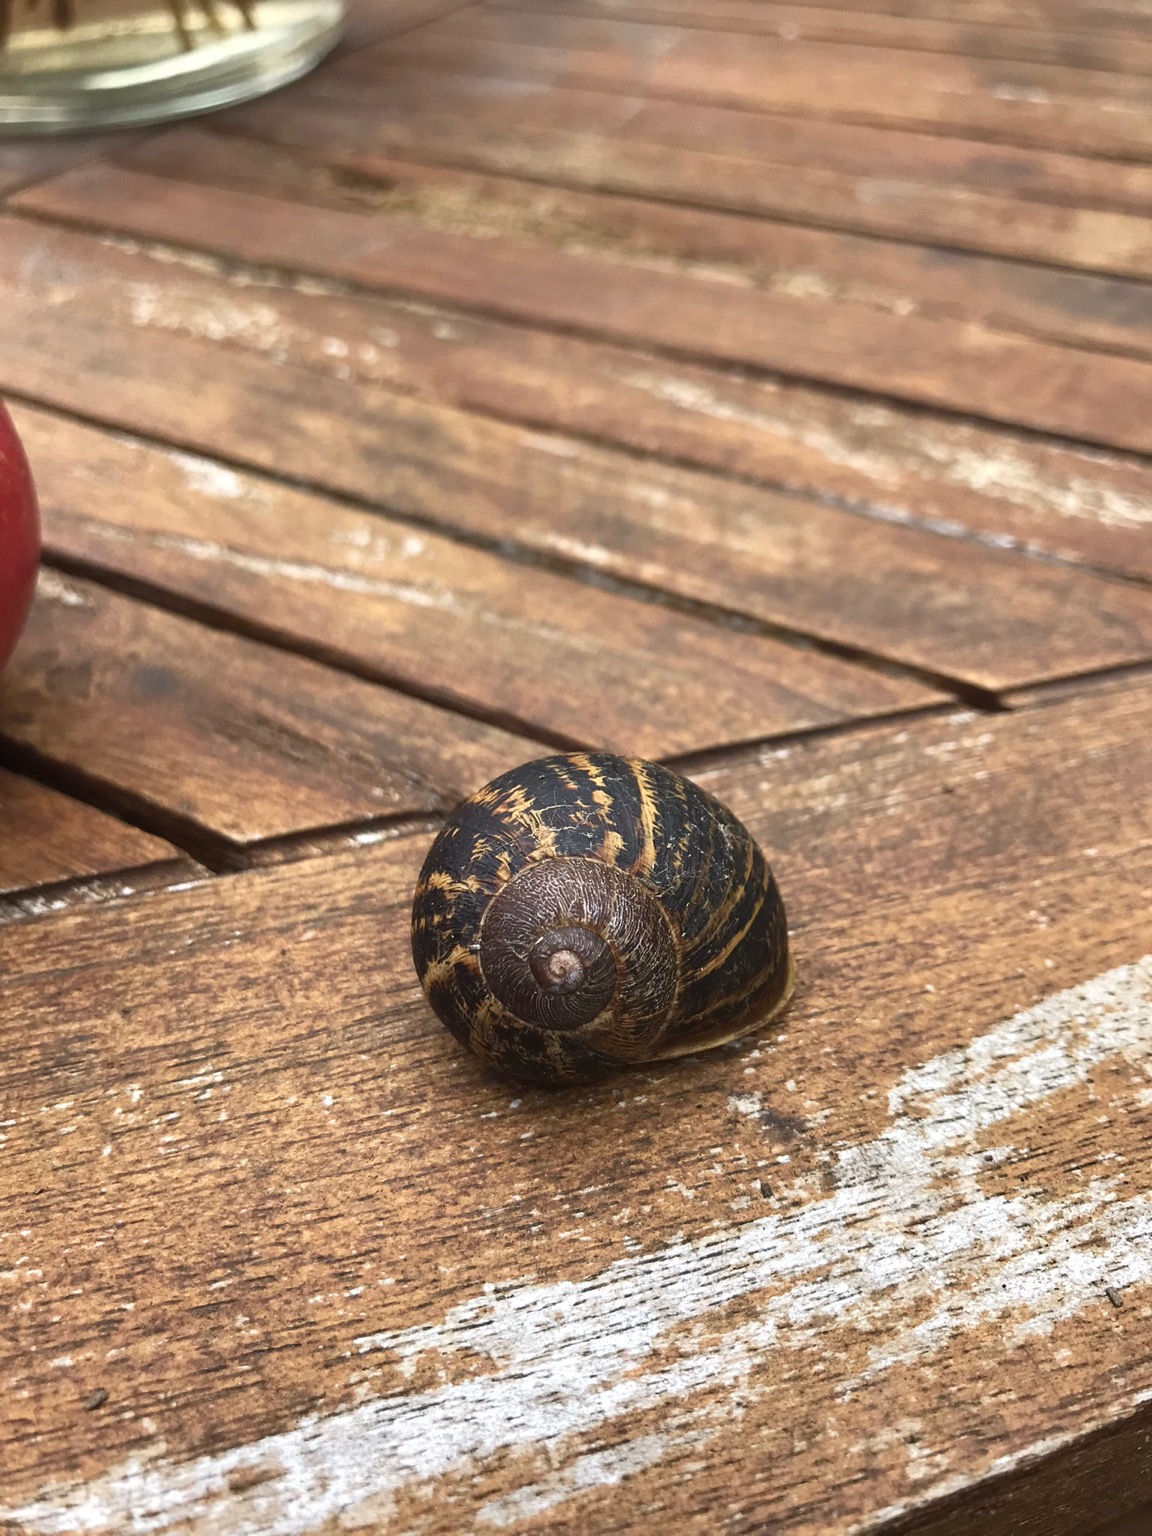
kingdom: Animalia
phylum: Mollusca
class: Gastropoda
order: Stylommatophora
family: Helicidae
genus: Cornu
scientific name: Cornu aspersum
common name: Plettet voldsnegl
